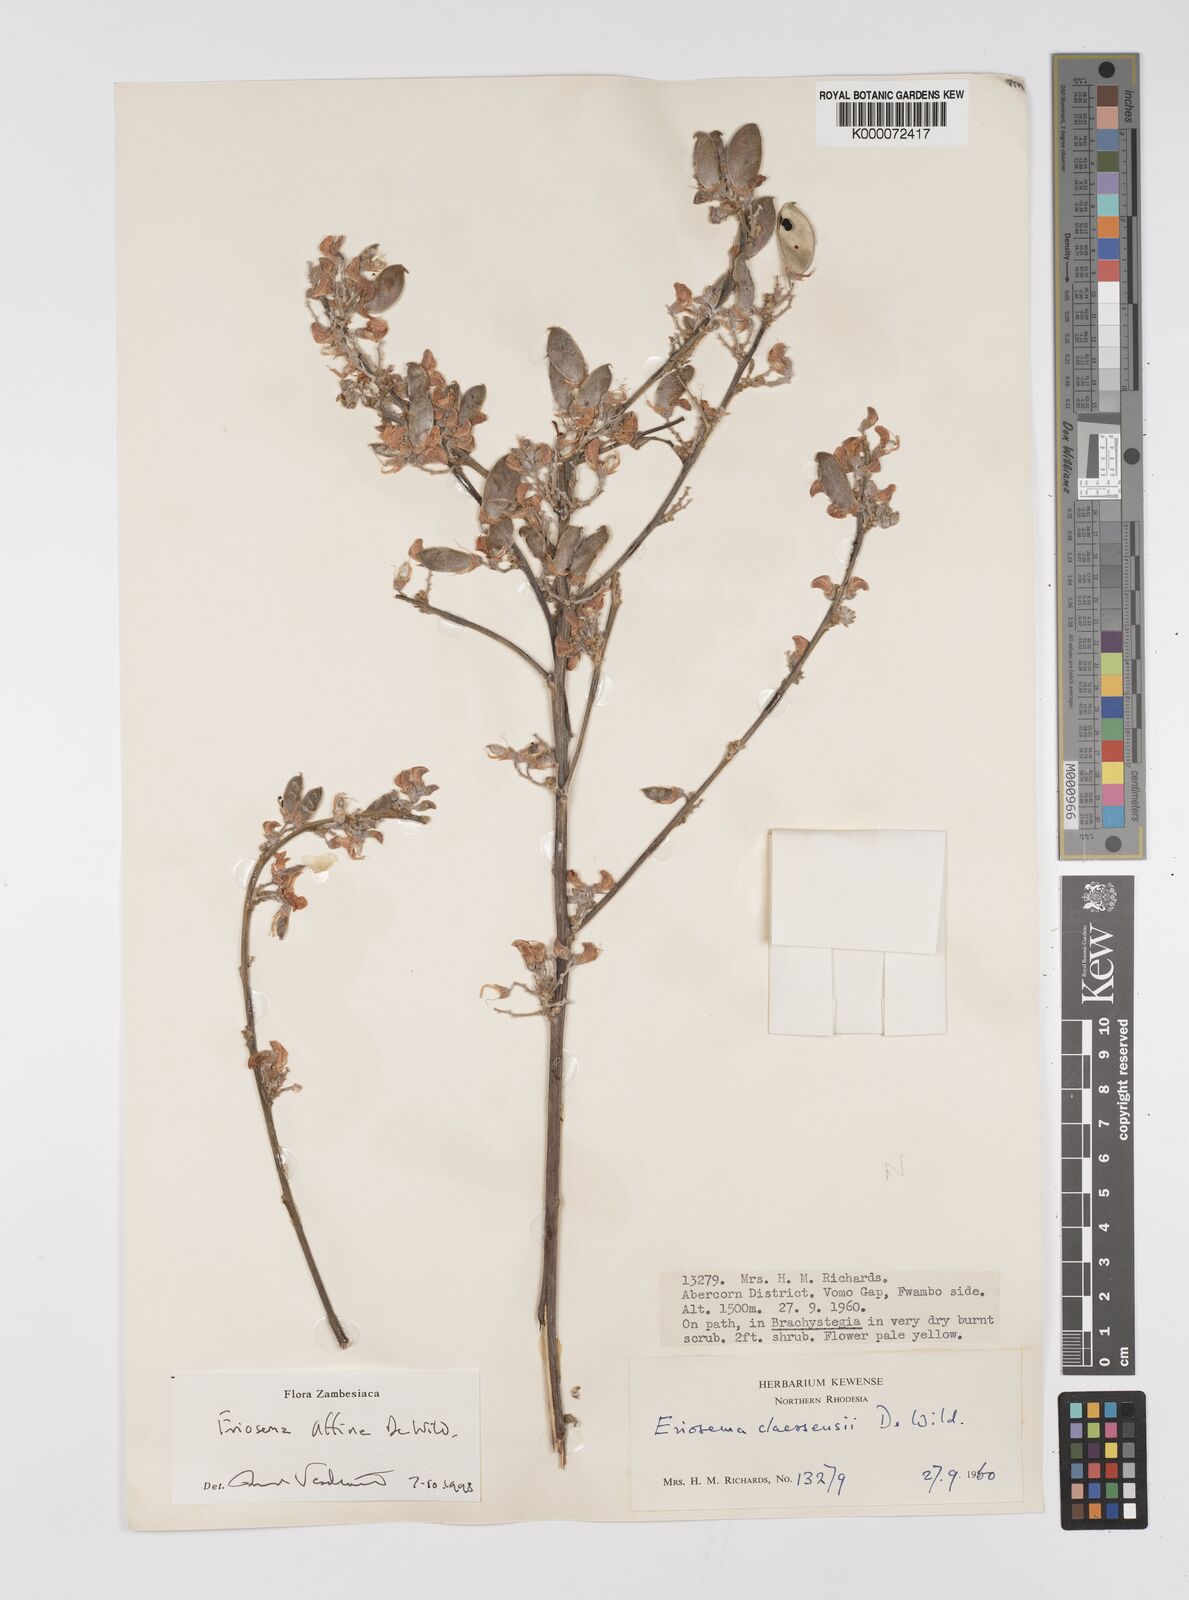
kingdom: Plantae
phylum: Tracheophyta
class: Magnoliopsida
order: Fabales
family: Fabaceae
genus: Eriosema
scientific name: Eriosema affine
